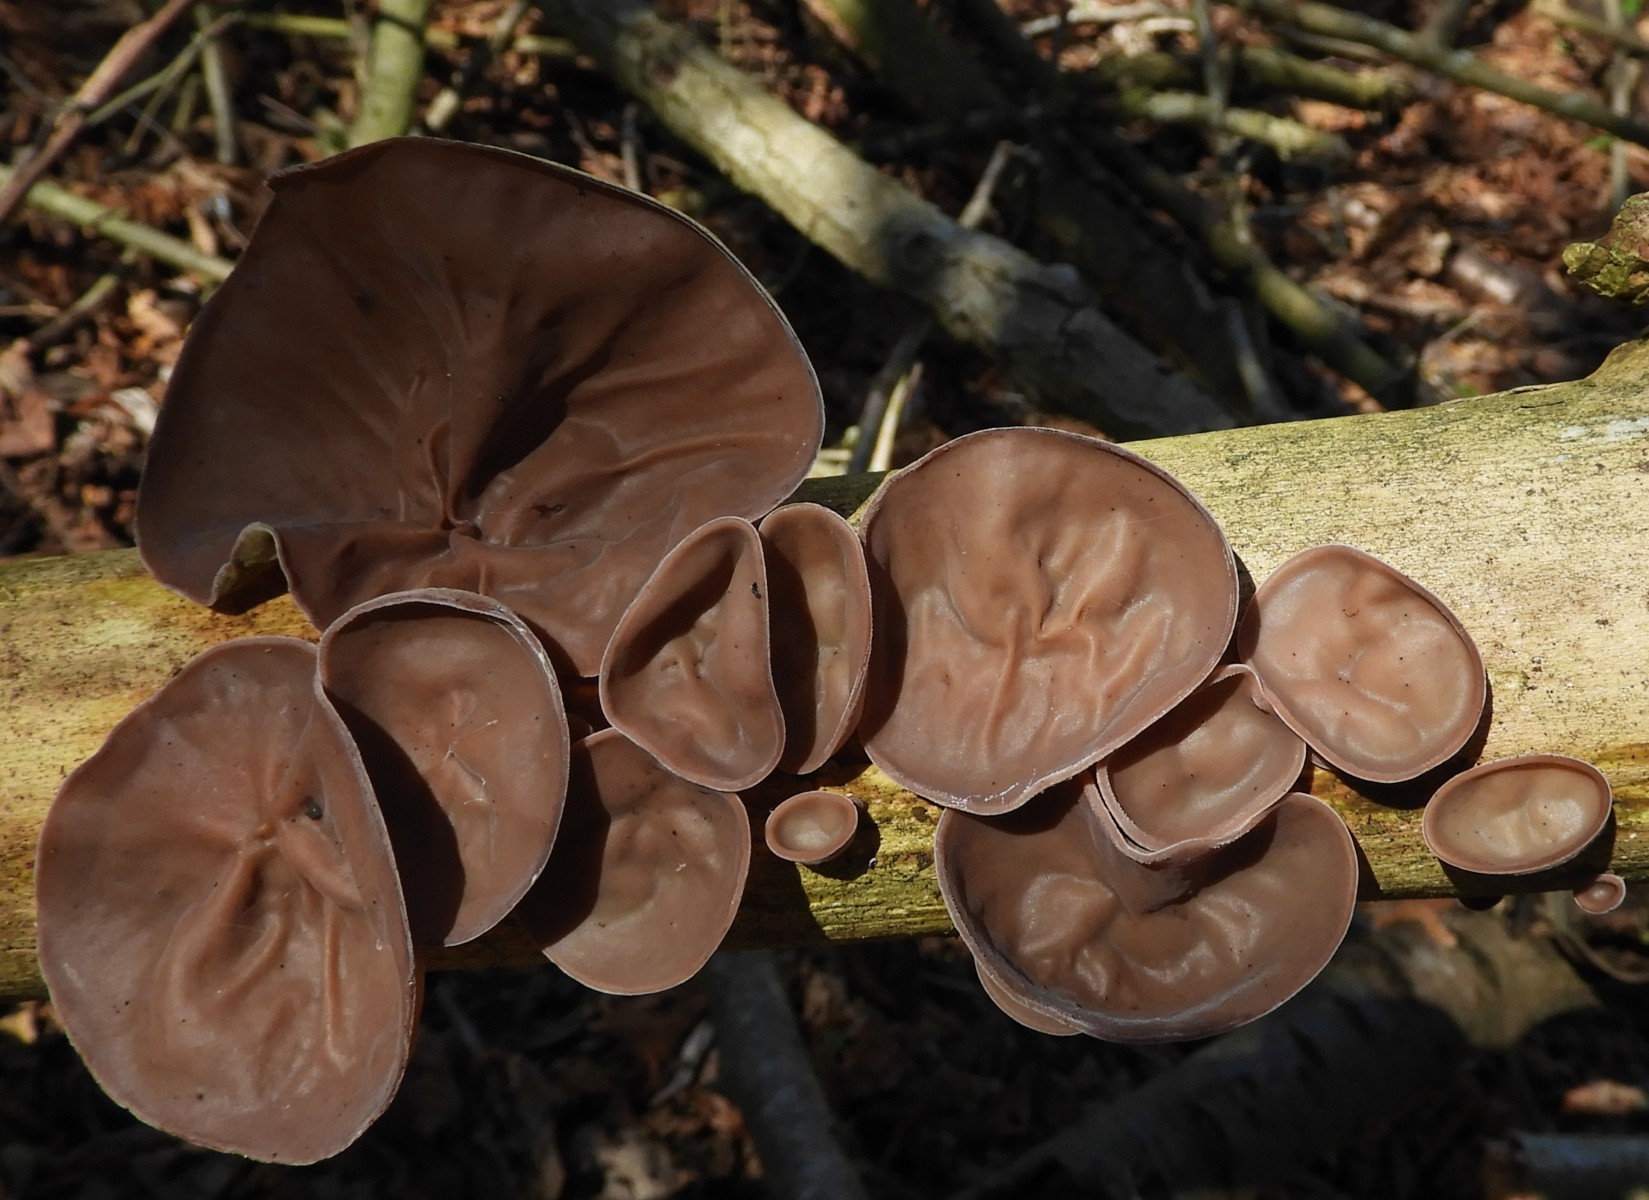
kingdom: Fungi
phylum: Basidiomycota
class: Agaricomycetes
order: Auriculariales
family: Auriculariaceae
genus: Auricularia
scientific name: Auricularia auricula-judae
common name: almindelig judasøre
